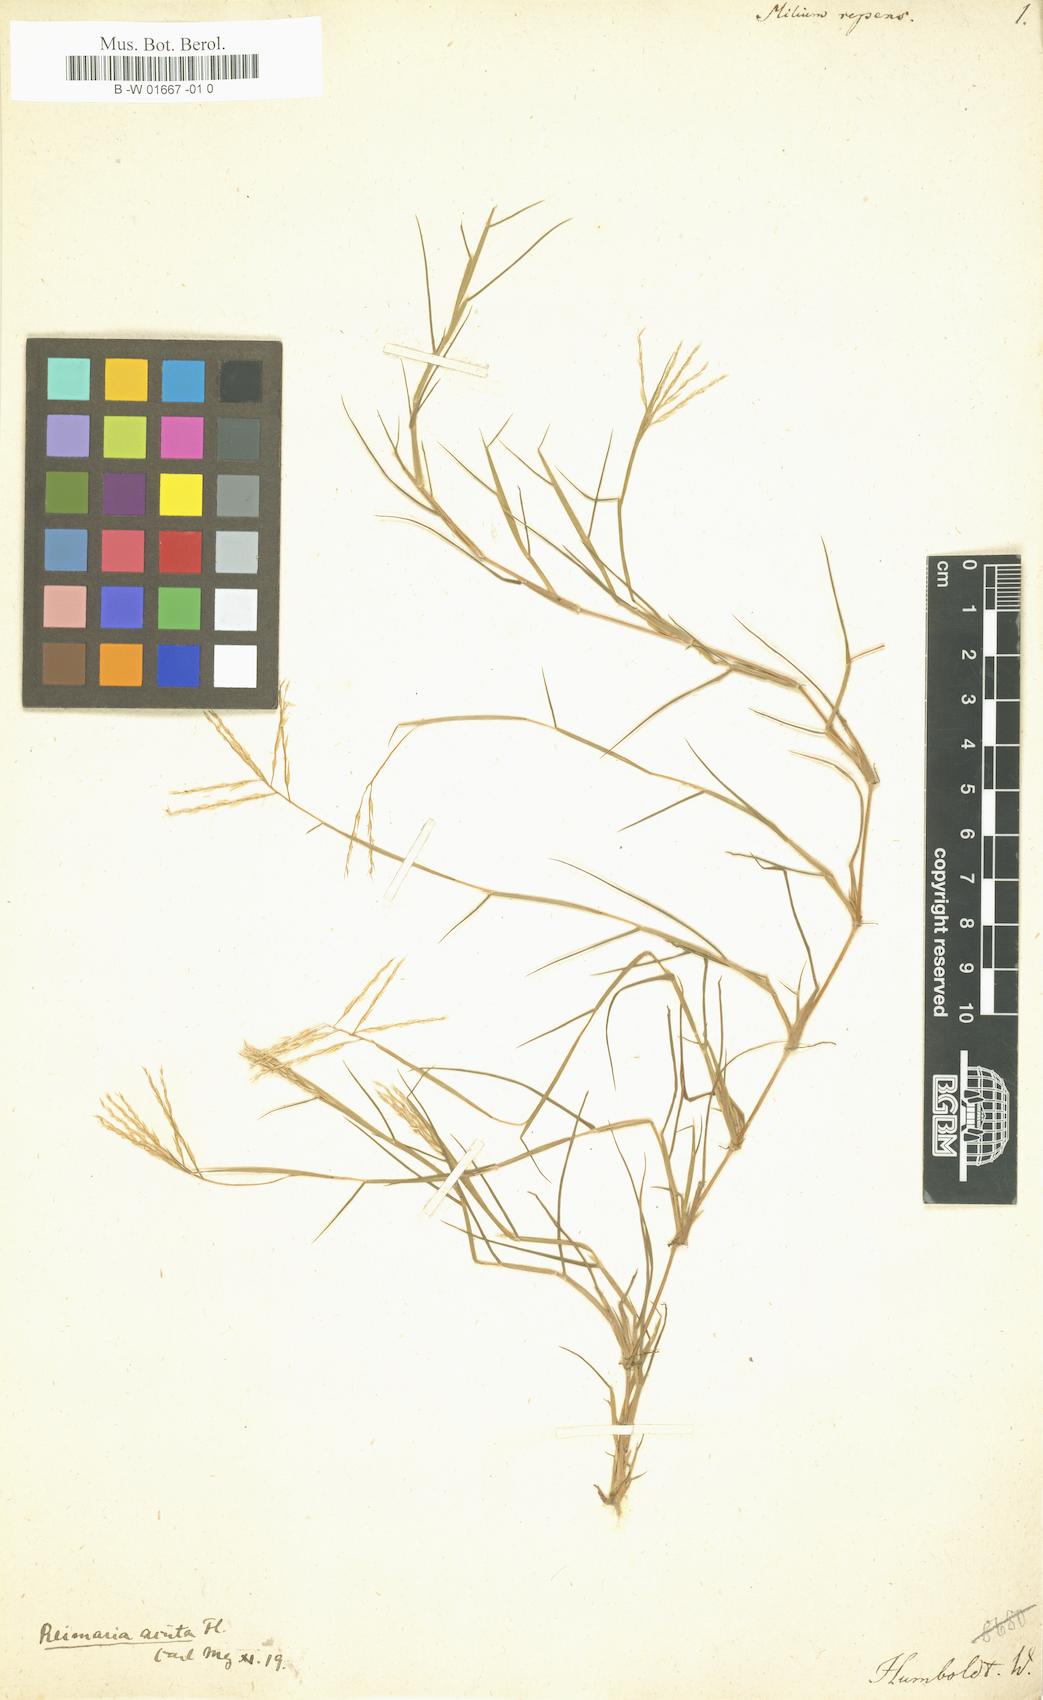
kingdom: Plantae
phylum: Tracheophyta
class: Liliopsida
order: Poales
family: Poaceae
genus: Milium
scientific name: Milium
